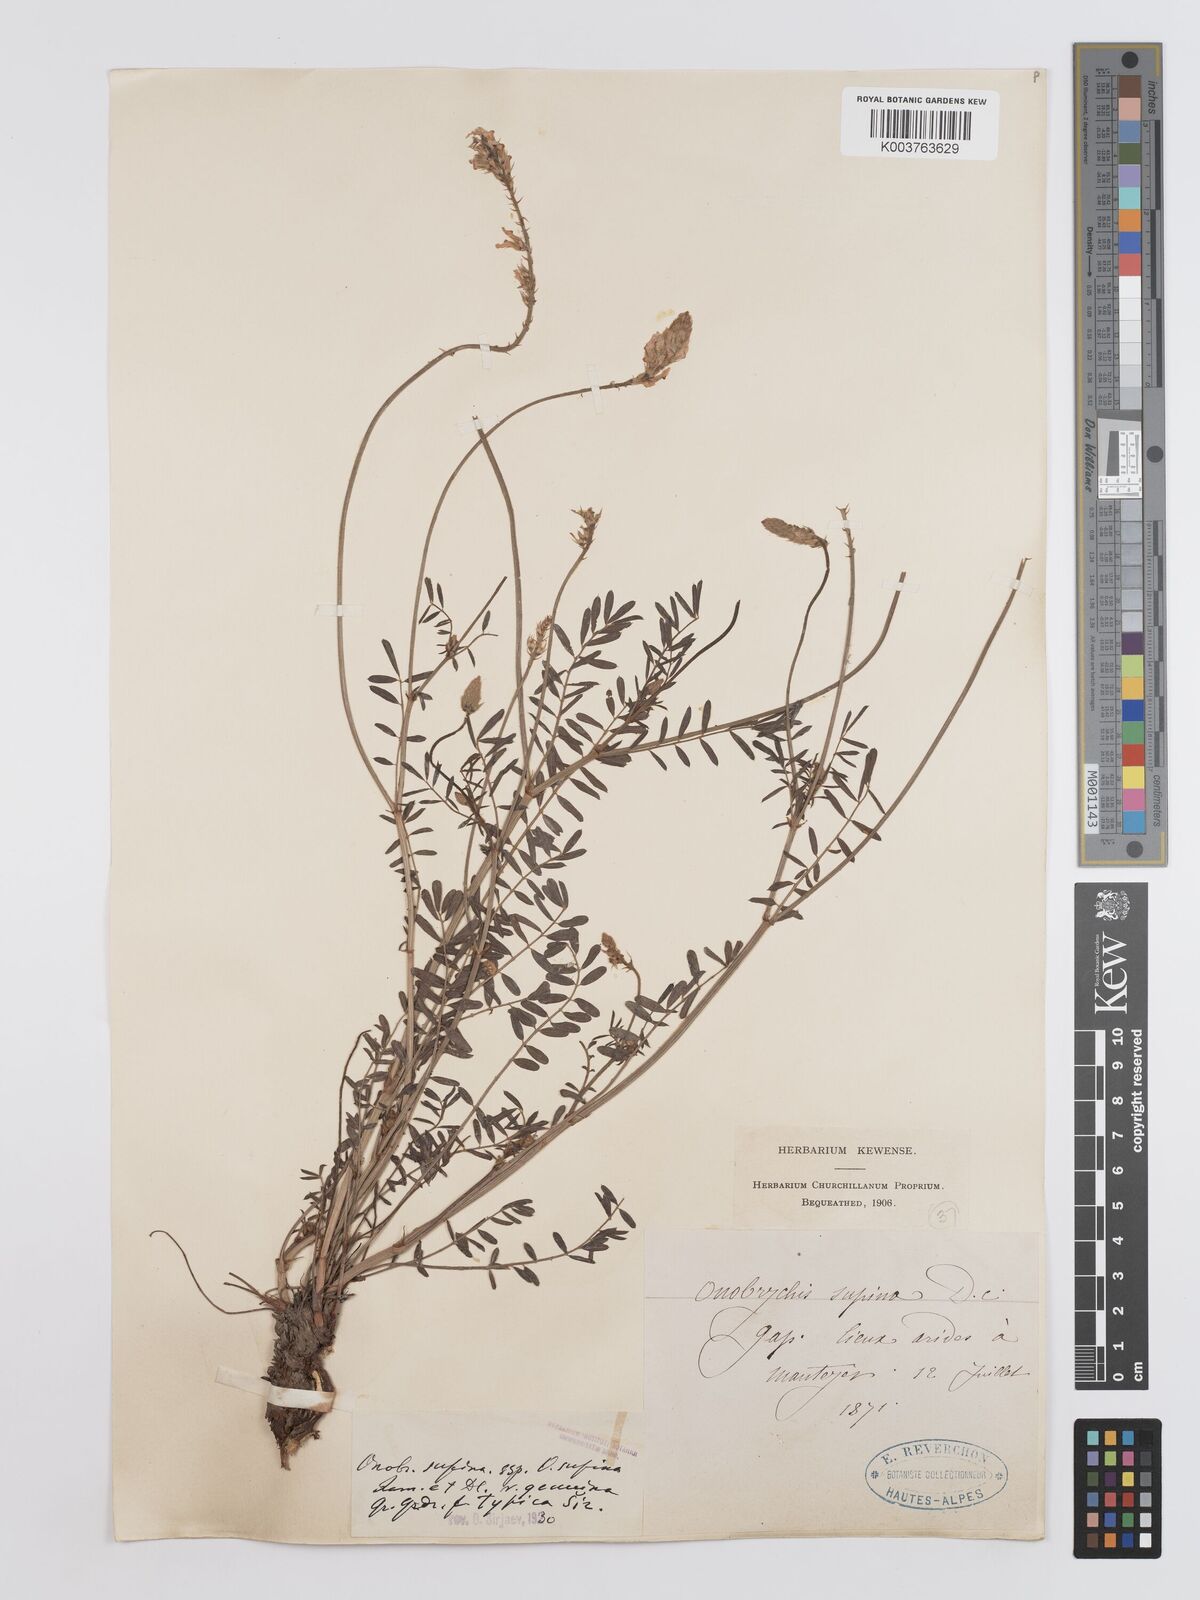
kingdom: Plantae
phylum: Tracheophyta
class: Magnoliopsida
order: Fabales
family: Fabaceae
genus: Onobrychis
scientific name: Onobrychis supina
